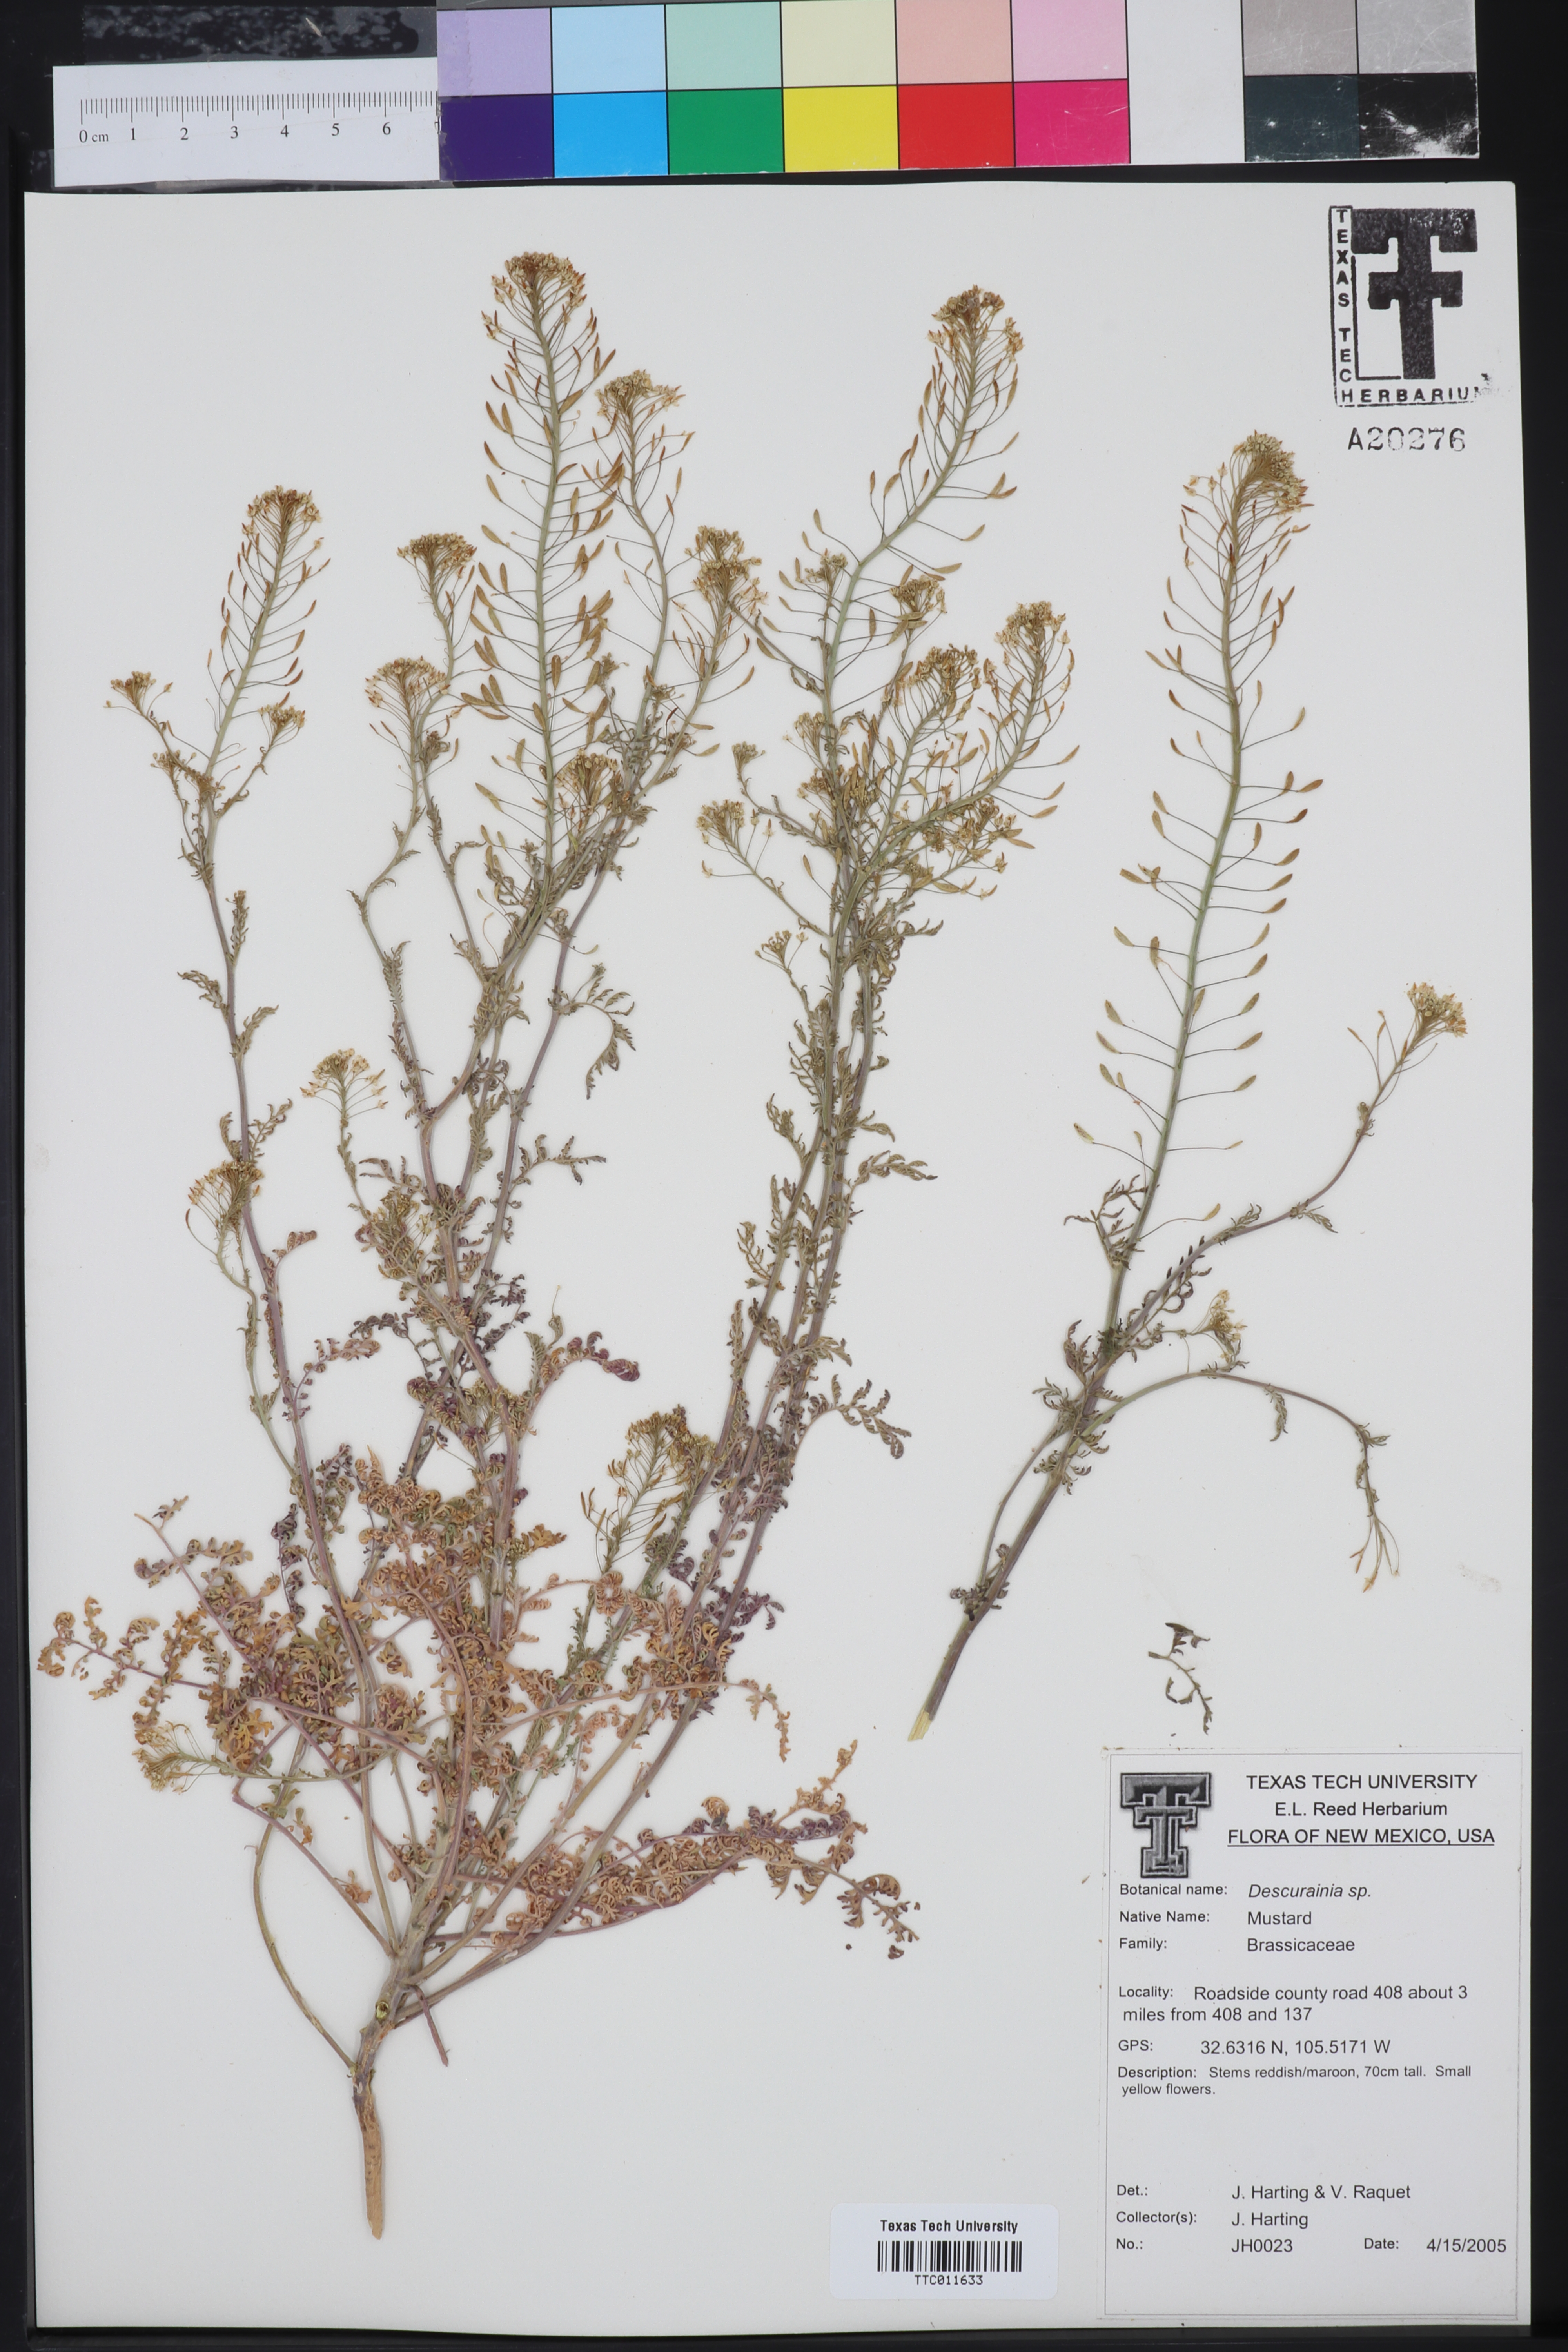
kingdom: Plantae
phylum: Tracheophyta
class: Magnoliopsida
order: Brassicales
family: Brassicaceae
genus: Descurainia
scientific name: Descurainia
